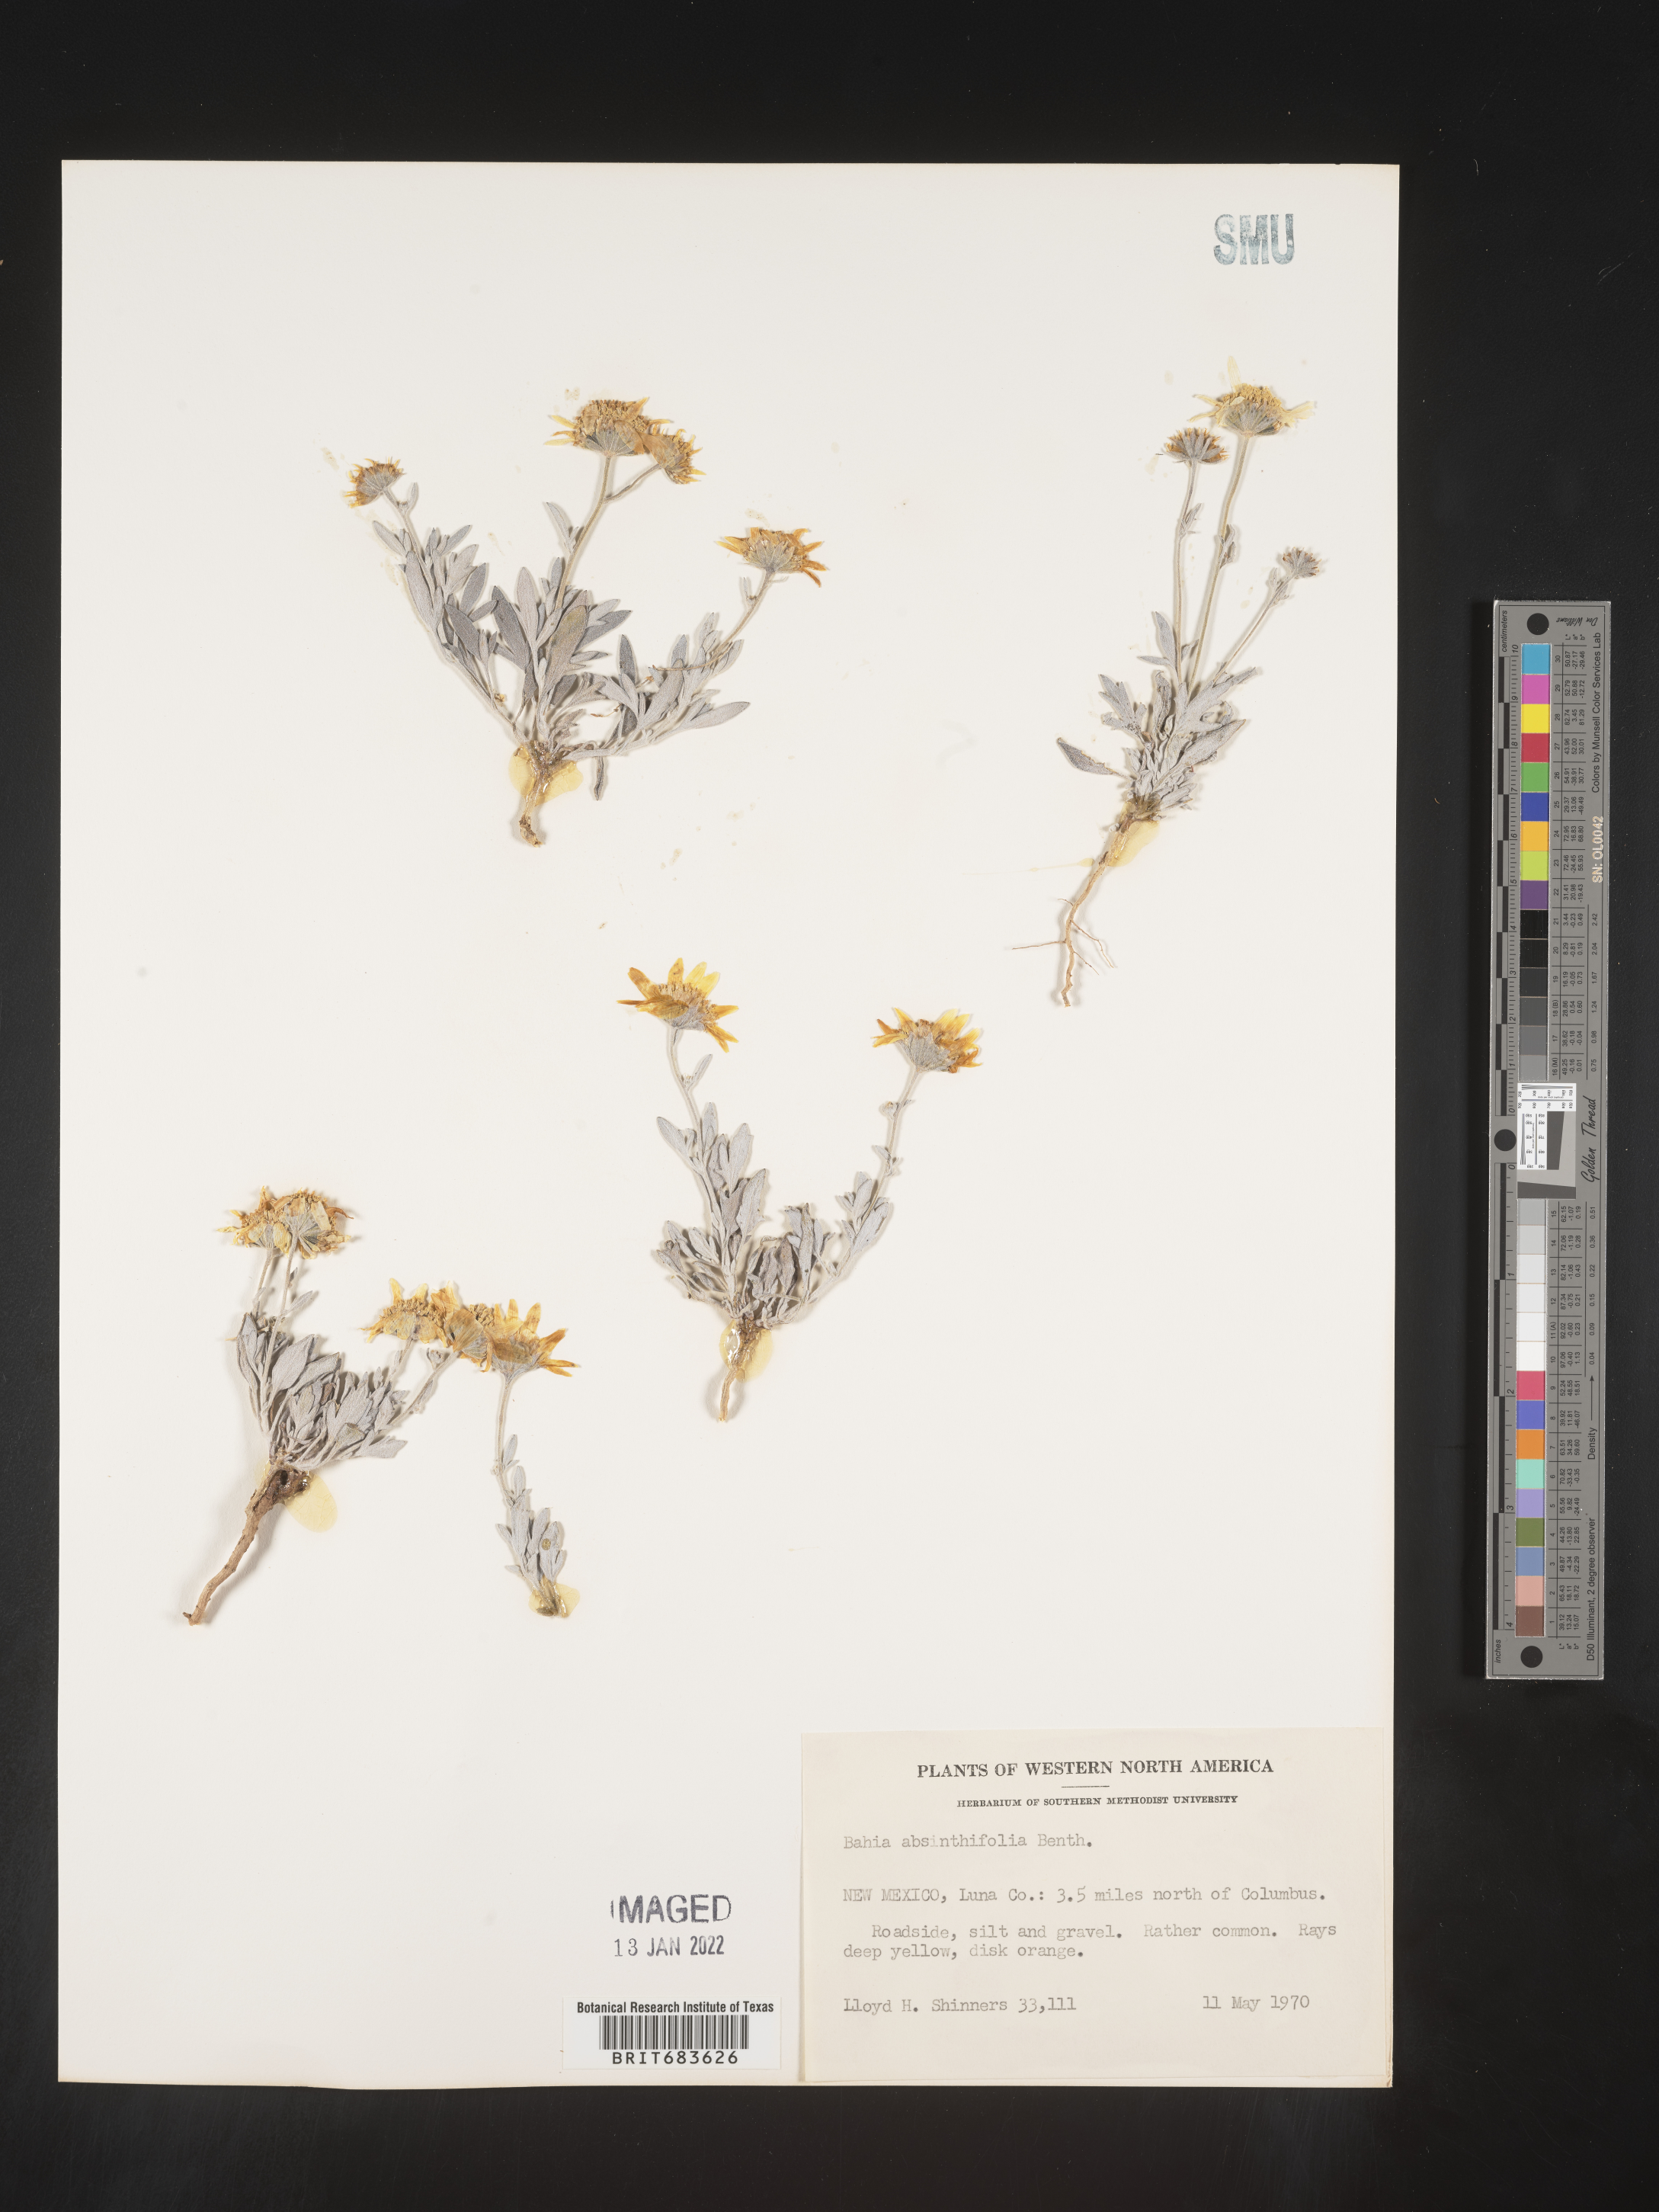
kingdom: Plantae
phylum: Tracheophyta
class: Magnoliopsida
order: Asterales
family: Asteraceae
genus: Picradeniopsis
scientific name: Picradeniopsis absinthifolia
